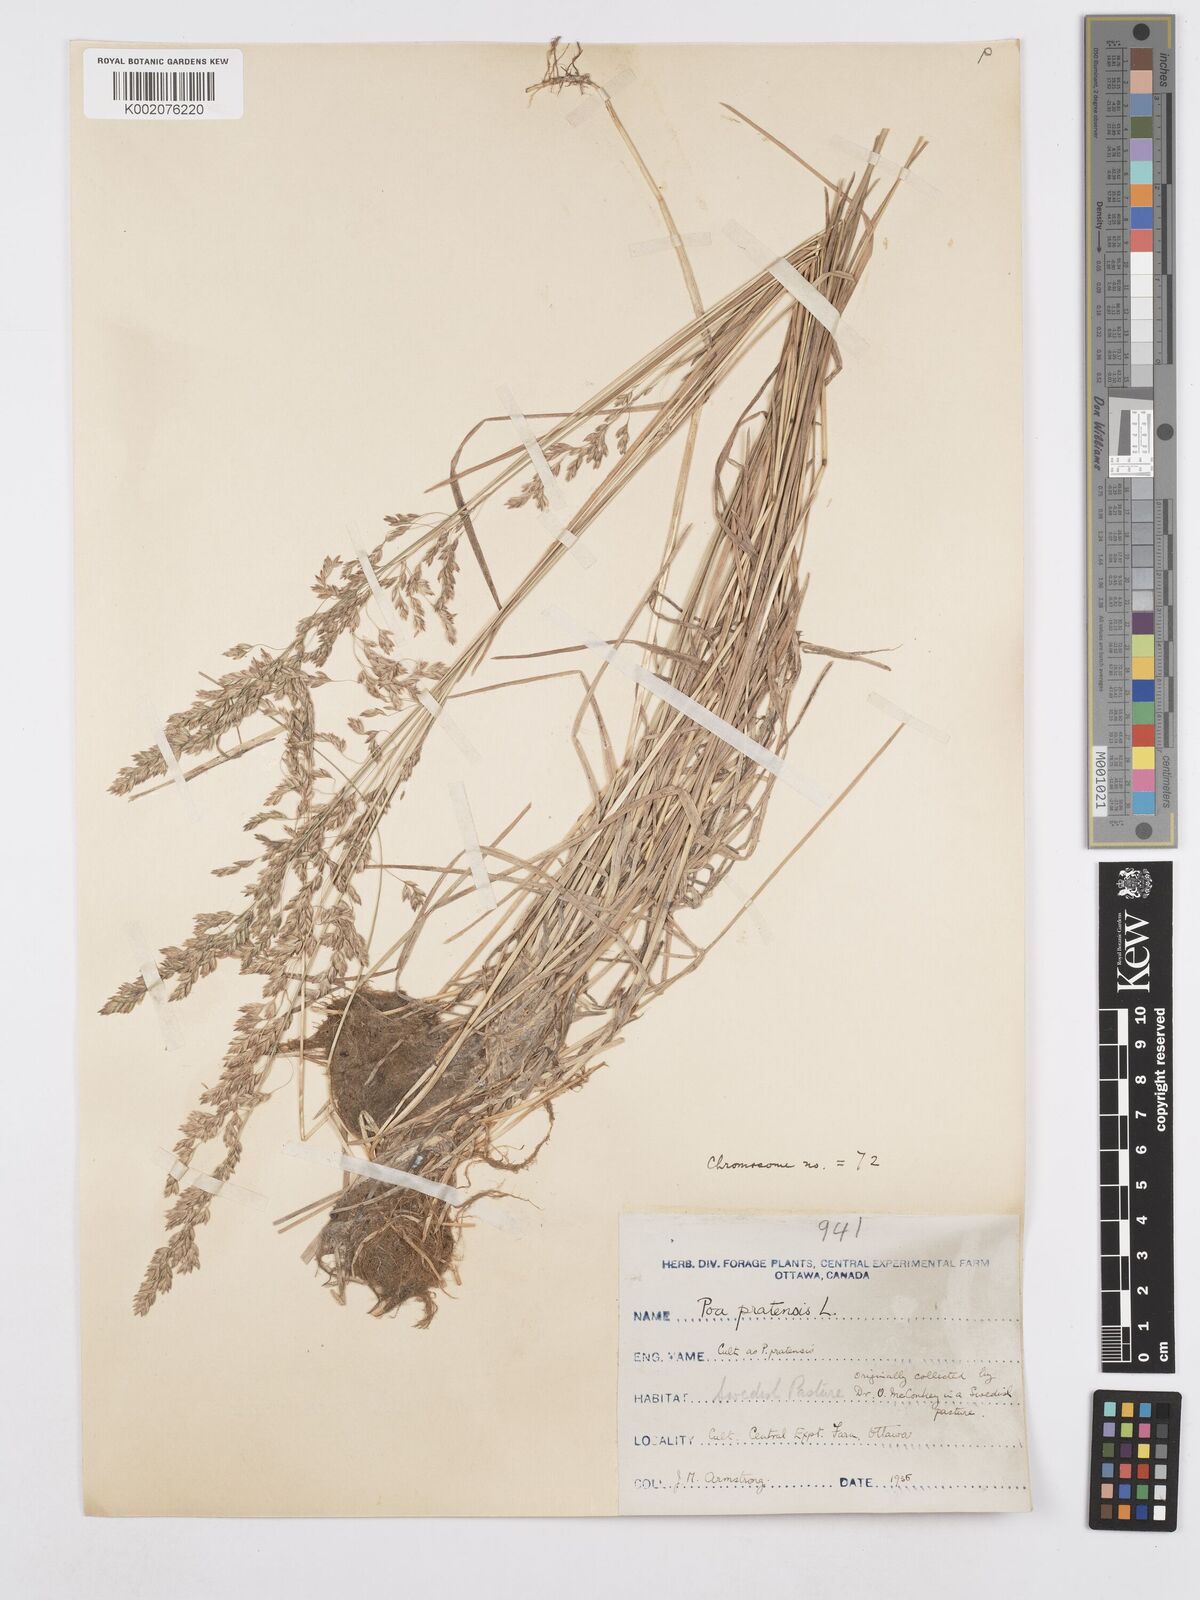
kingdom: Plantae
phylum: Tracheophyta
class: Liliopsida
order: Poales
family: Poaceae
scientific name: Poaceae
